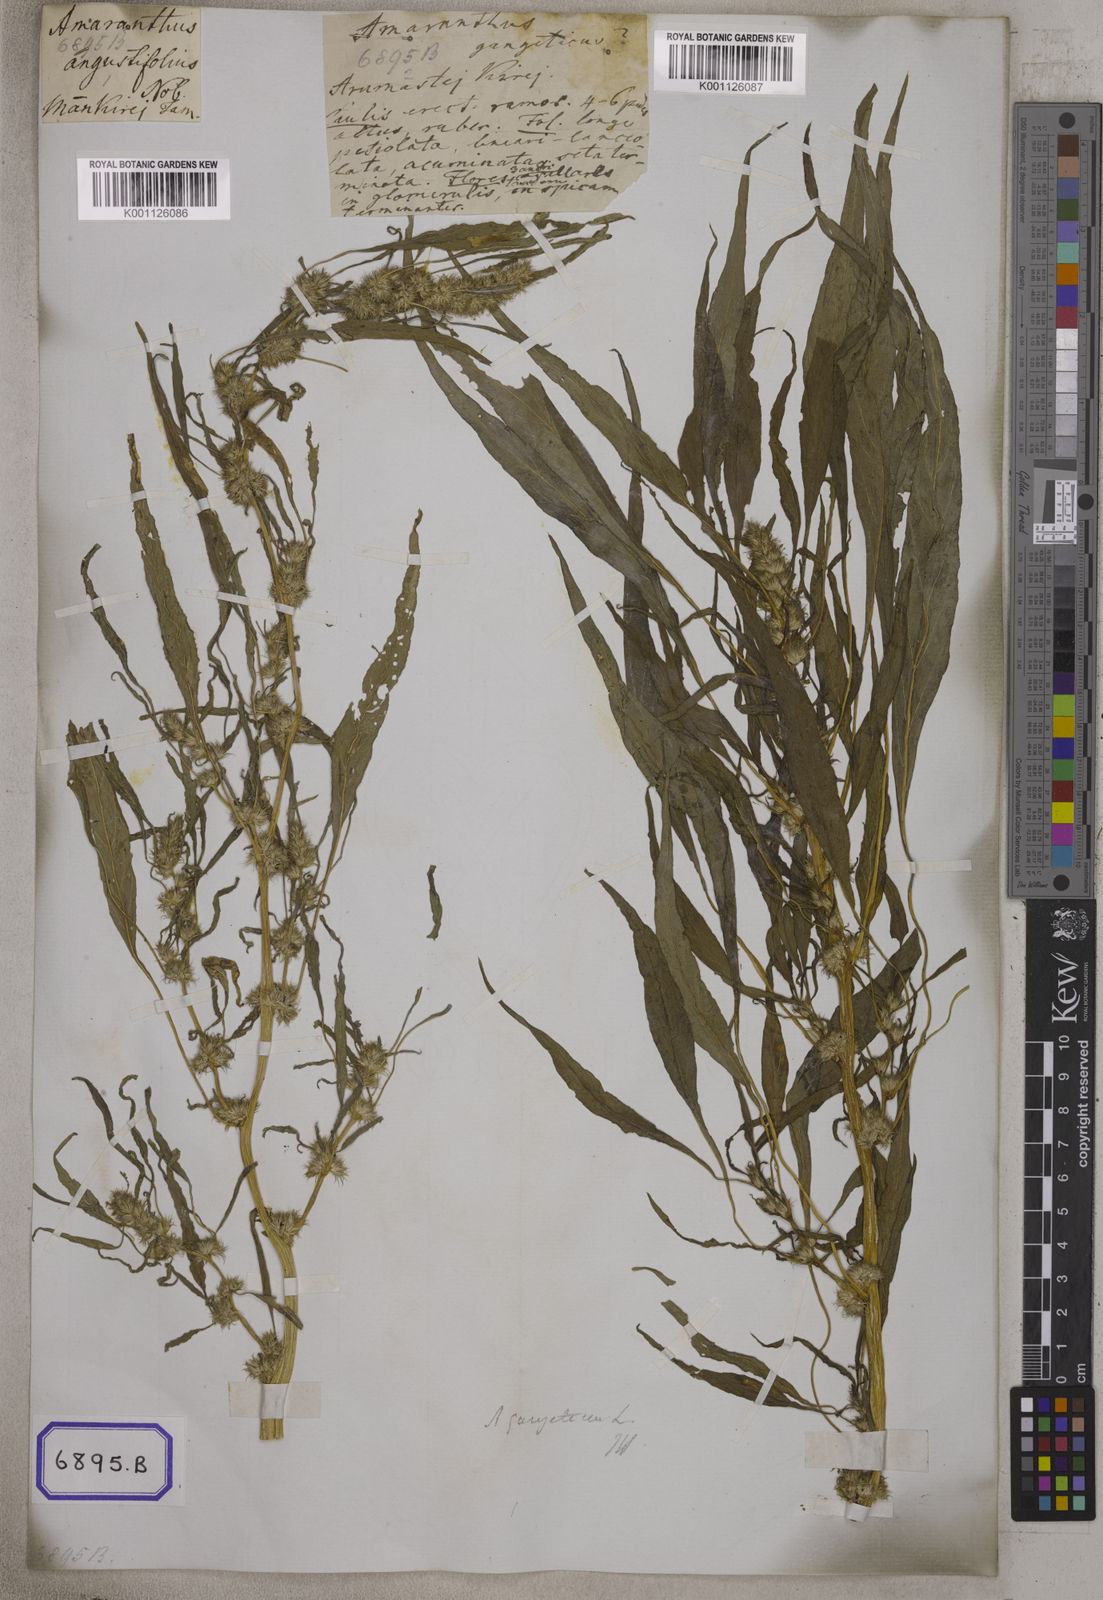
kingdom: Plantae
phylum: Tracheophyta
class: Magnoliopsida
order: Caryophyllales
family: Amaranthaceae
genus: Amaranthus
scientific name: Amaranthus tricolor
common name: Joseph's-coat
